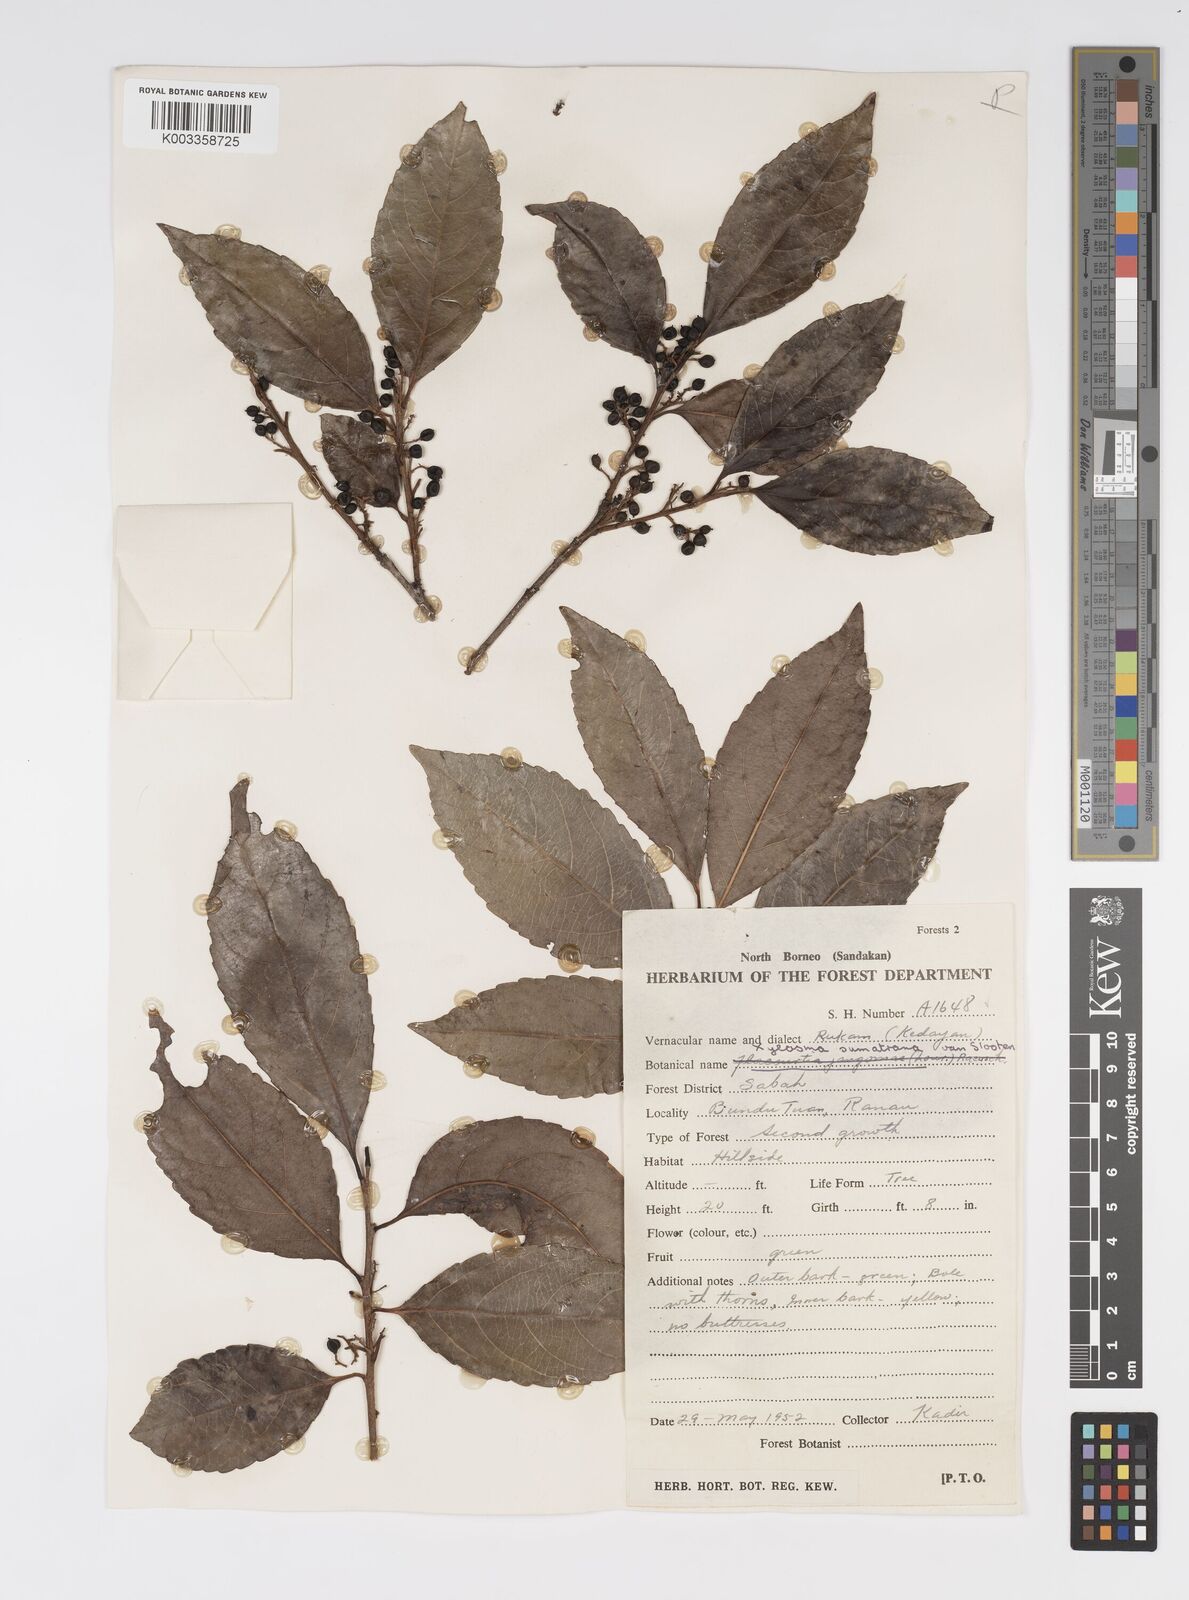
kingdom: Plantae
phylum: Tracheophyta
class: Magnoliopsida
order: Malpighiales
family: Salicaceae
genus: Xylosma
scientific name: Xylosma sumatrana
